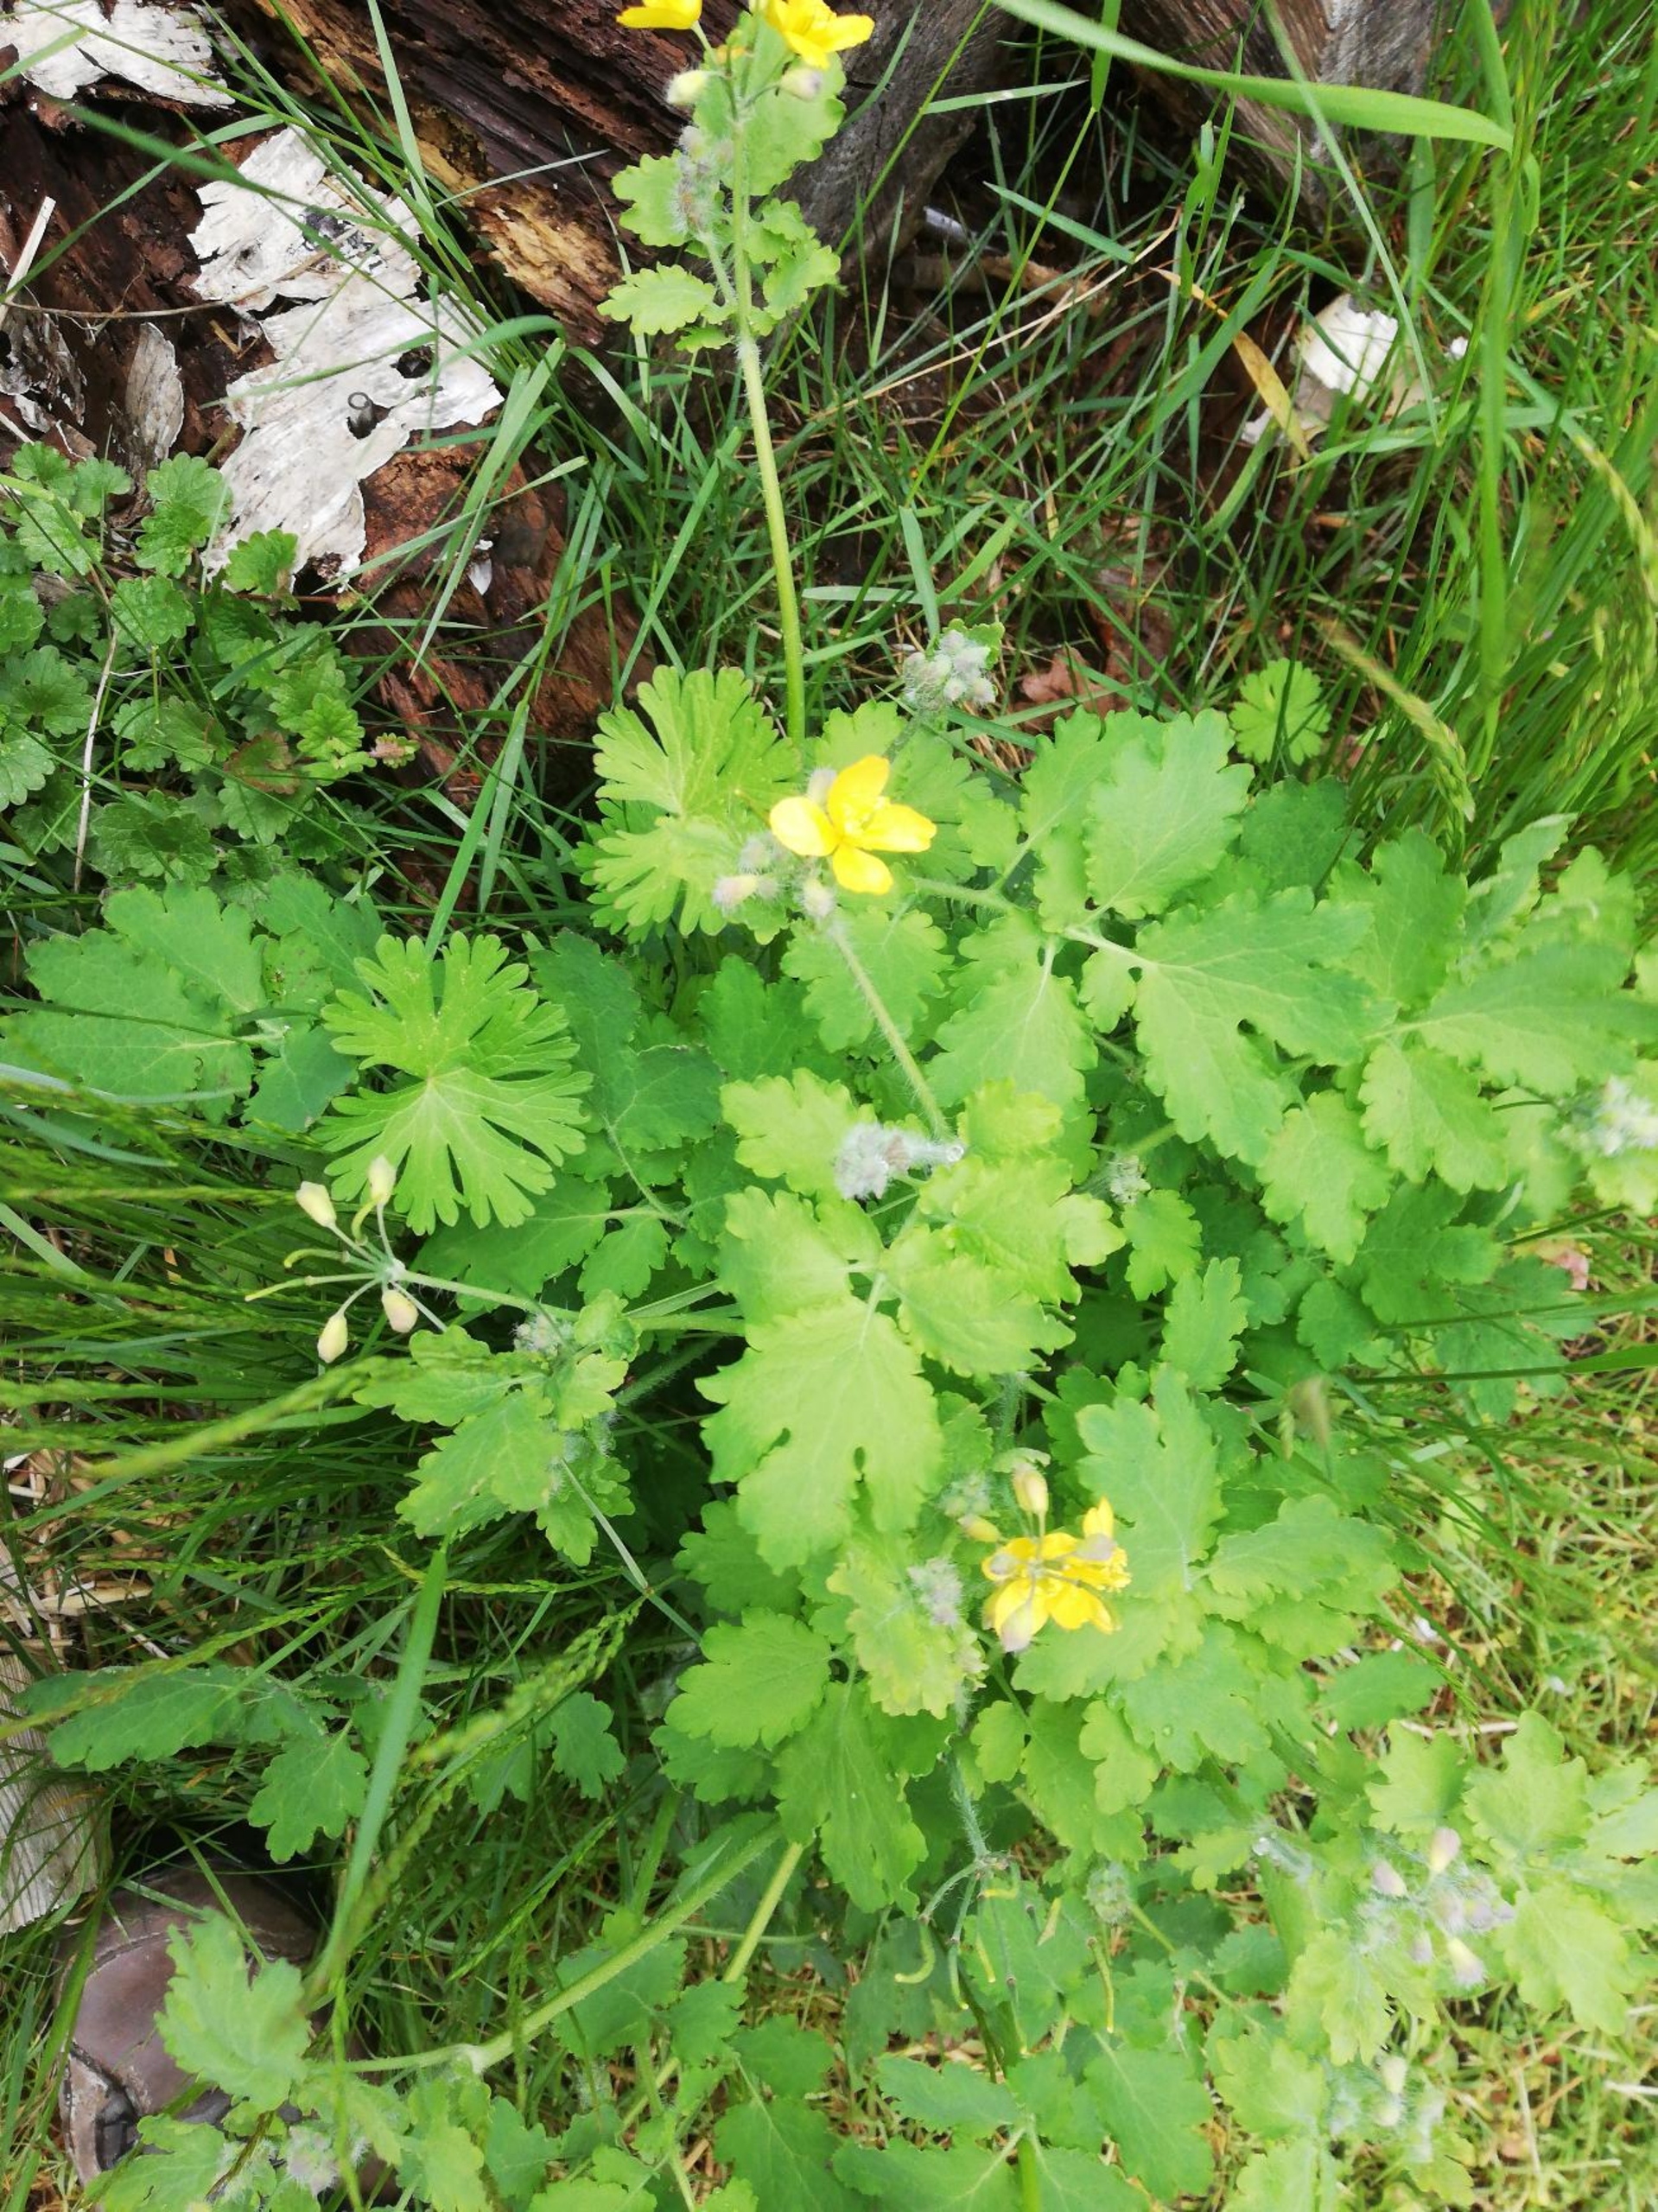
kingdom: Plantae
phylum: Tracheophyta
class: Magnoliopsida
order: Ranunculales
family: Papaveraceae
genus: Chelidonium
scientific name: Chelidonium majus
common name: Svaleurt
